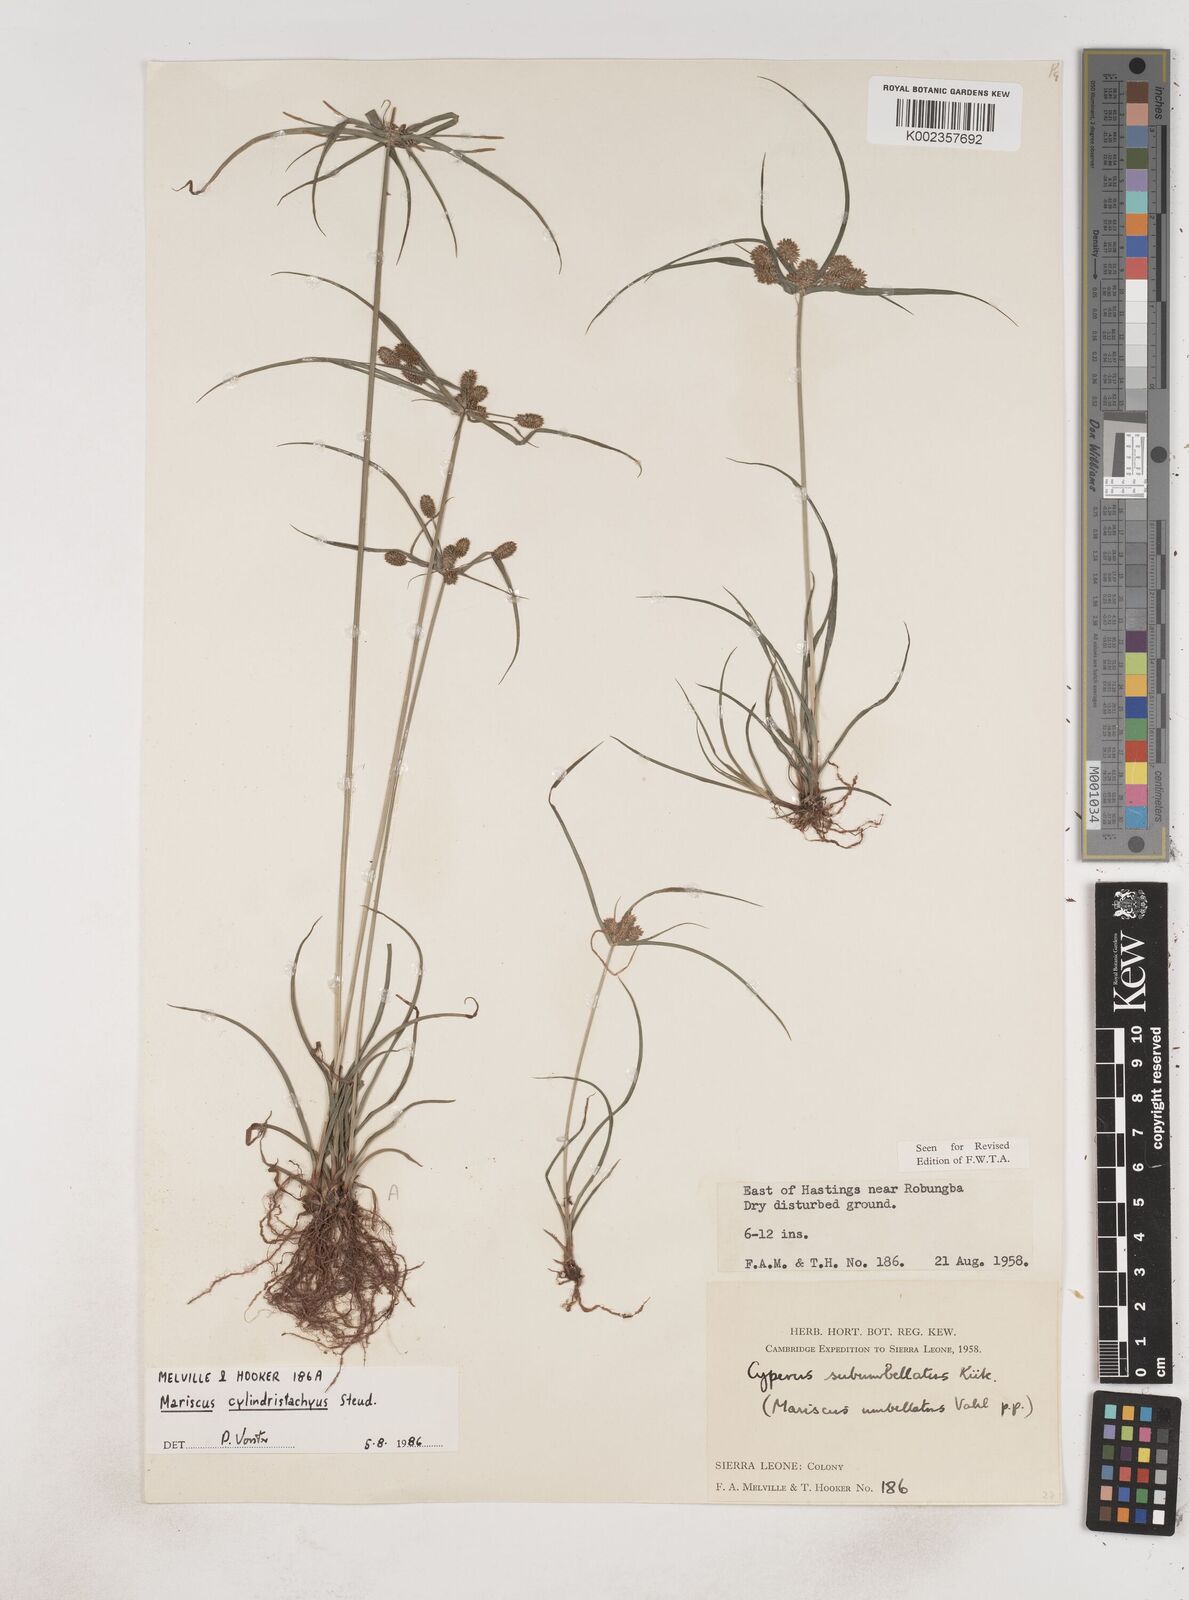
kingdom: Plantae
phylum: Tracheophyta
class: Liliopsida
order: Poales
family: Cyperaceae
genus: Cyperus
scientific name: Cyperus sublimis
